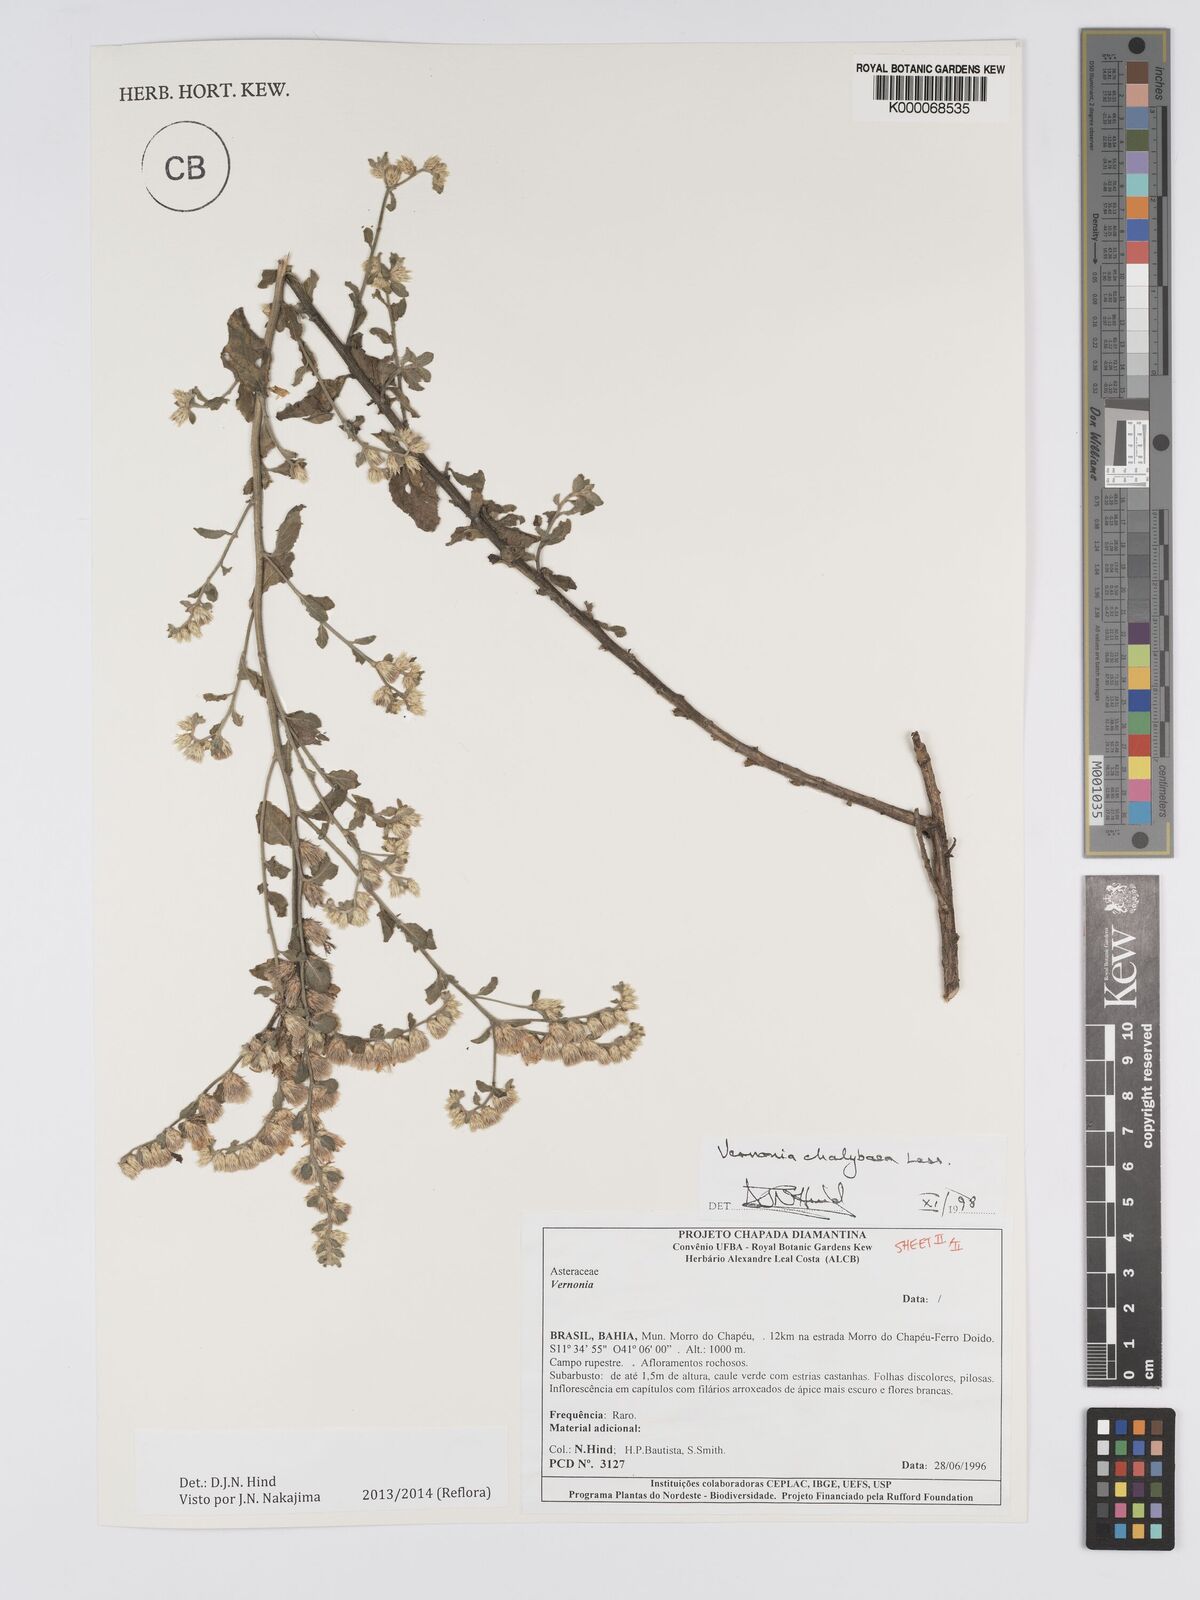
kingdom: Plantae
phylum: Tracheophyta
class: Magnoliopsida
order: Asterales
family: Asteraceae
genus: Lepidaploa
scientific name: Lepidaploa chalybaea
